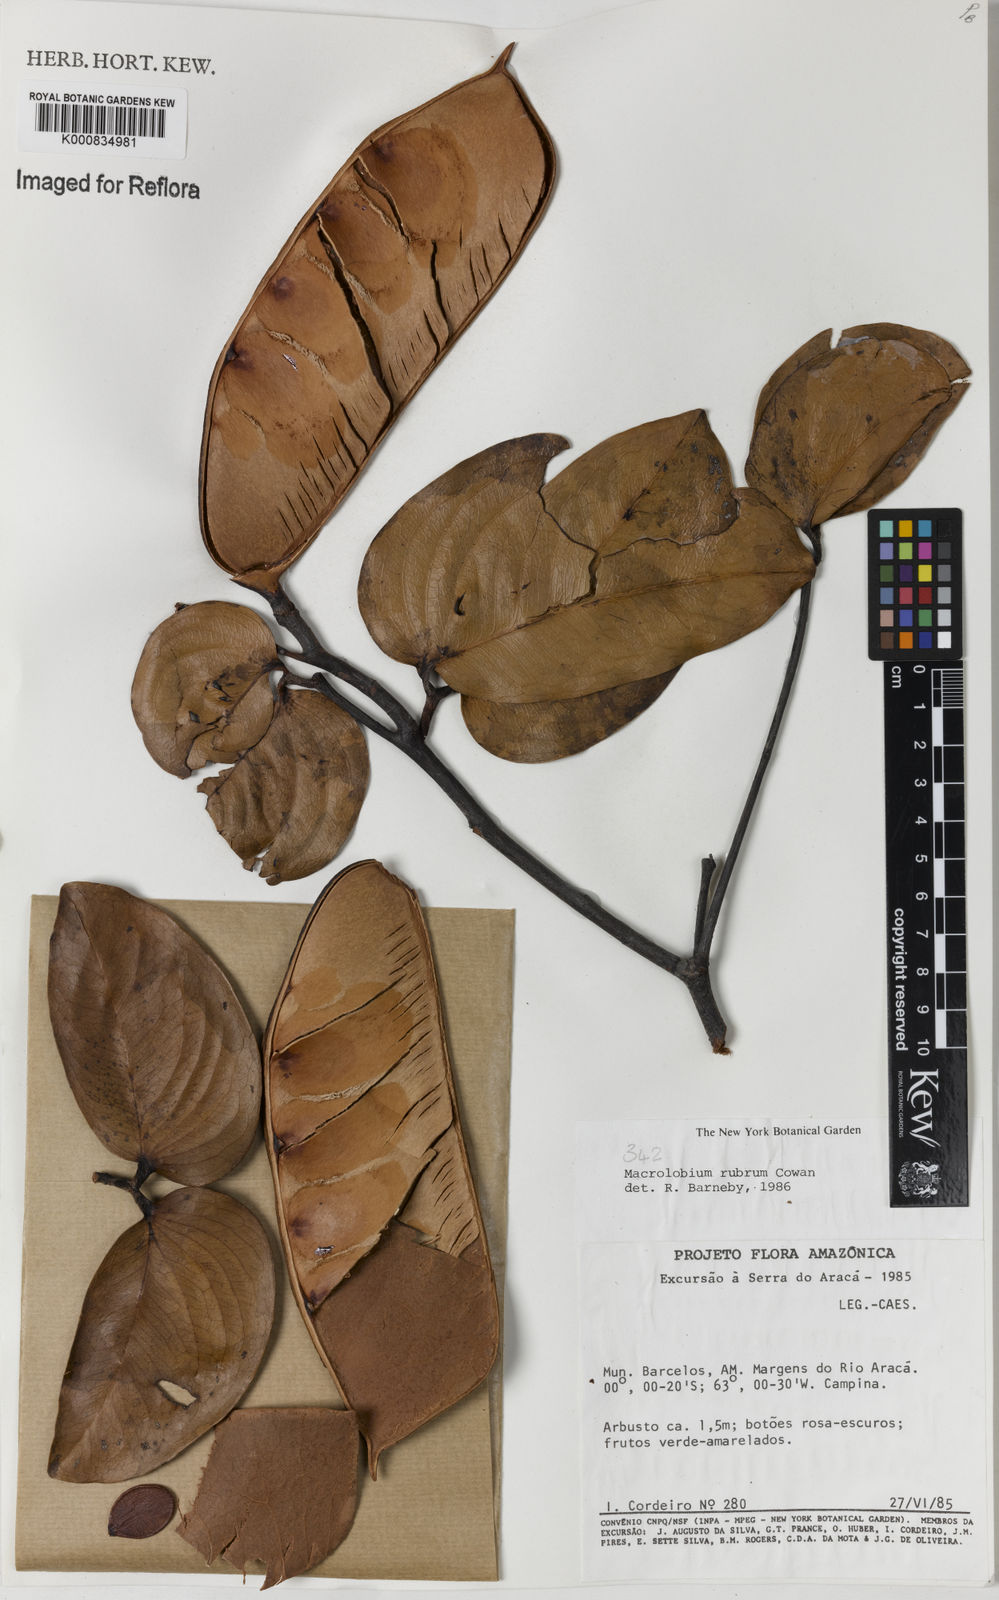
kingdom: Plantae
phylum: Tracheophyta
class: Magnoliopsida
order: Fabales
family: Fabaceae
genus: Macrolobium
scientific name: Macrolobium rubrum
